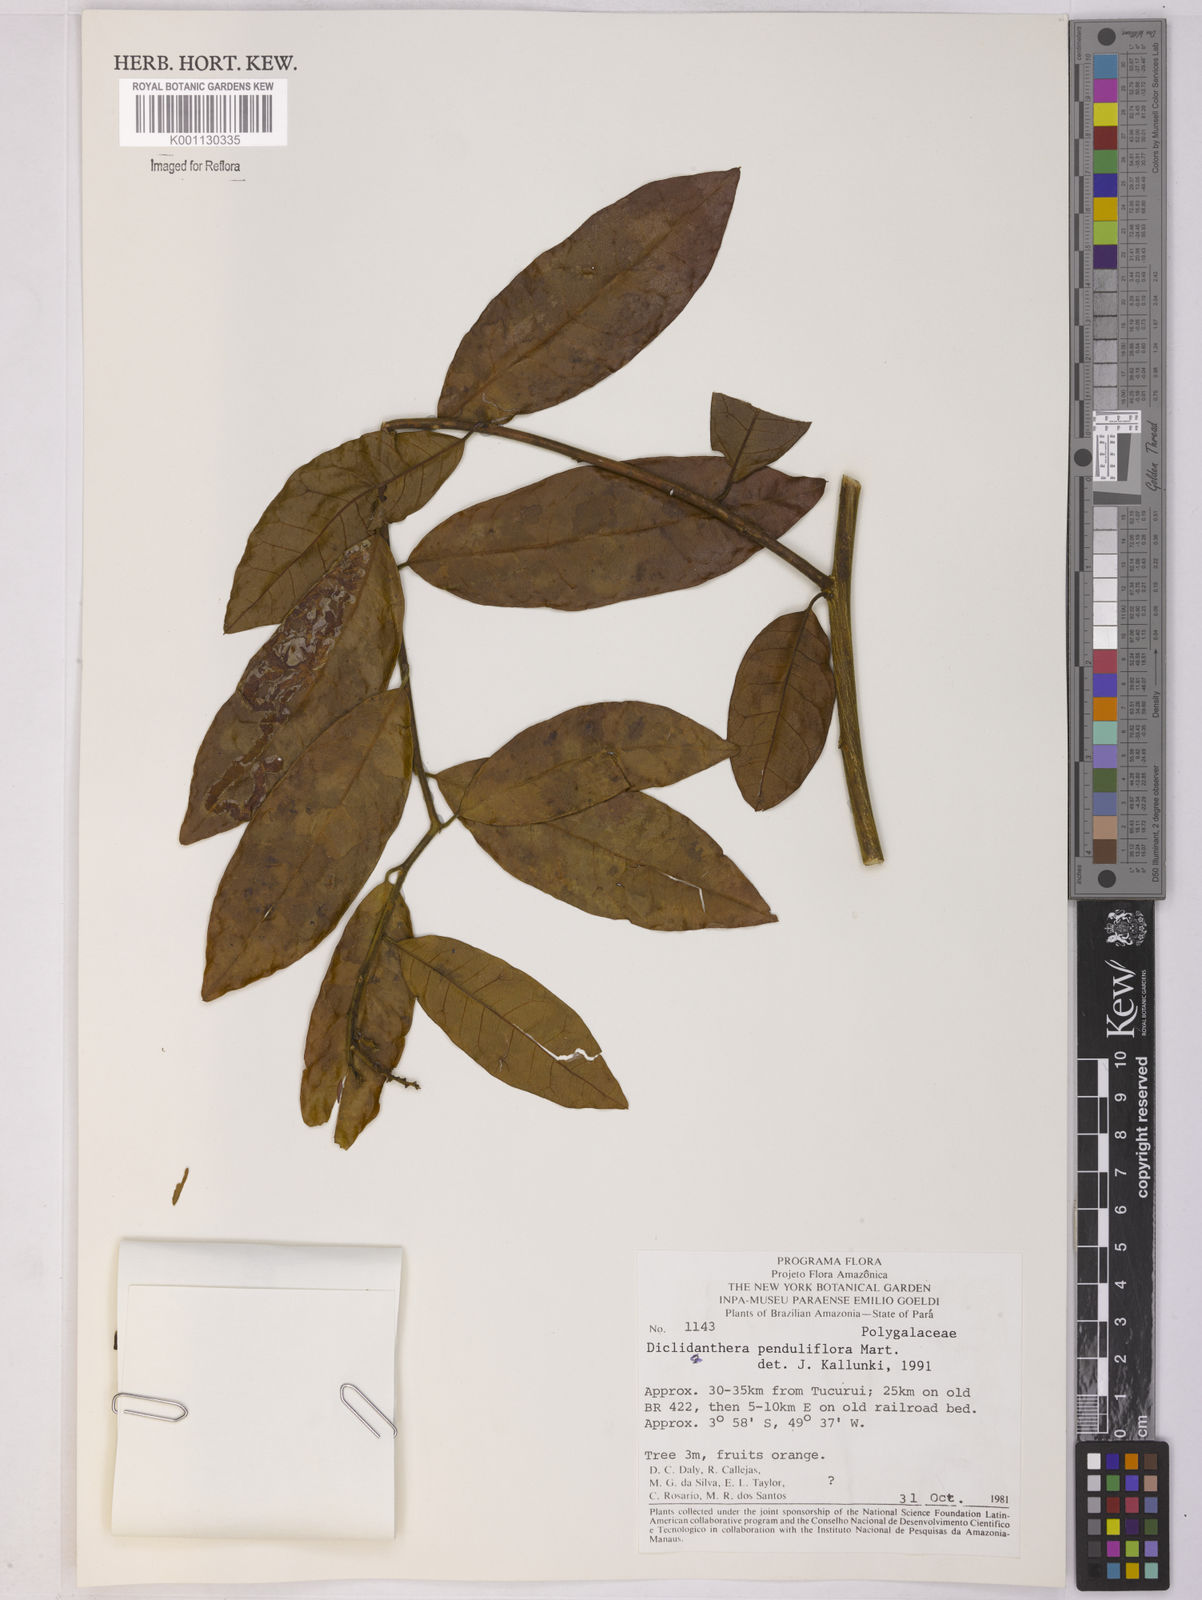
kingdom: Plantae
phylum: Tracheophyta
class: Magnoliopsida
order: Fabales
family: Polygalaceae
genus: Diclidanthera
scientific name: Diclidanthera
